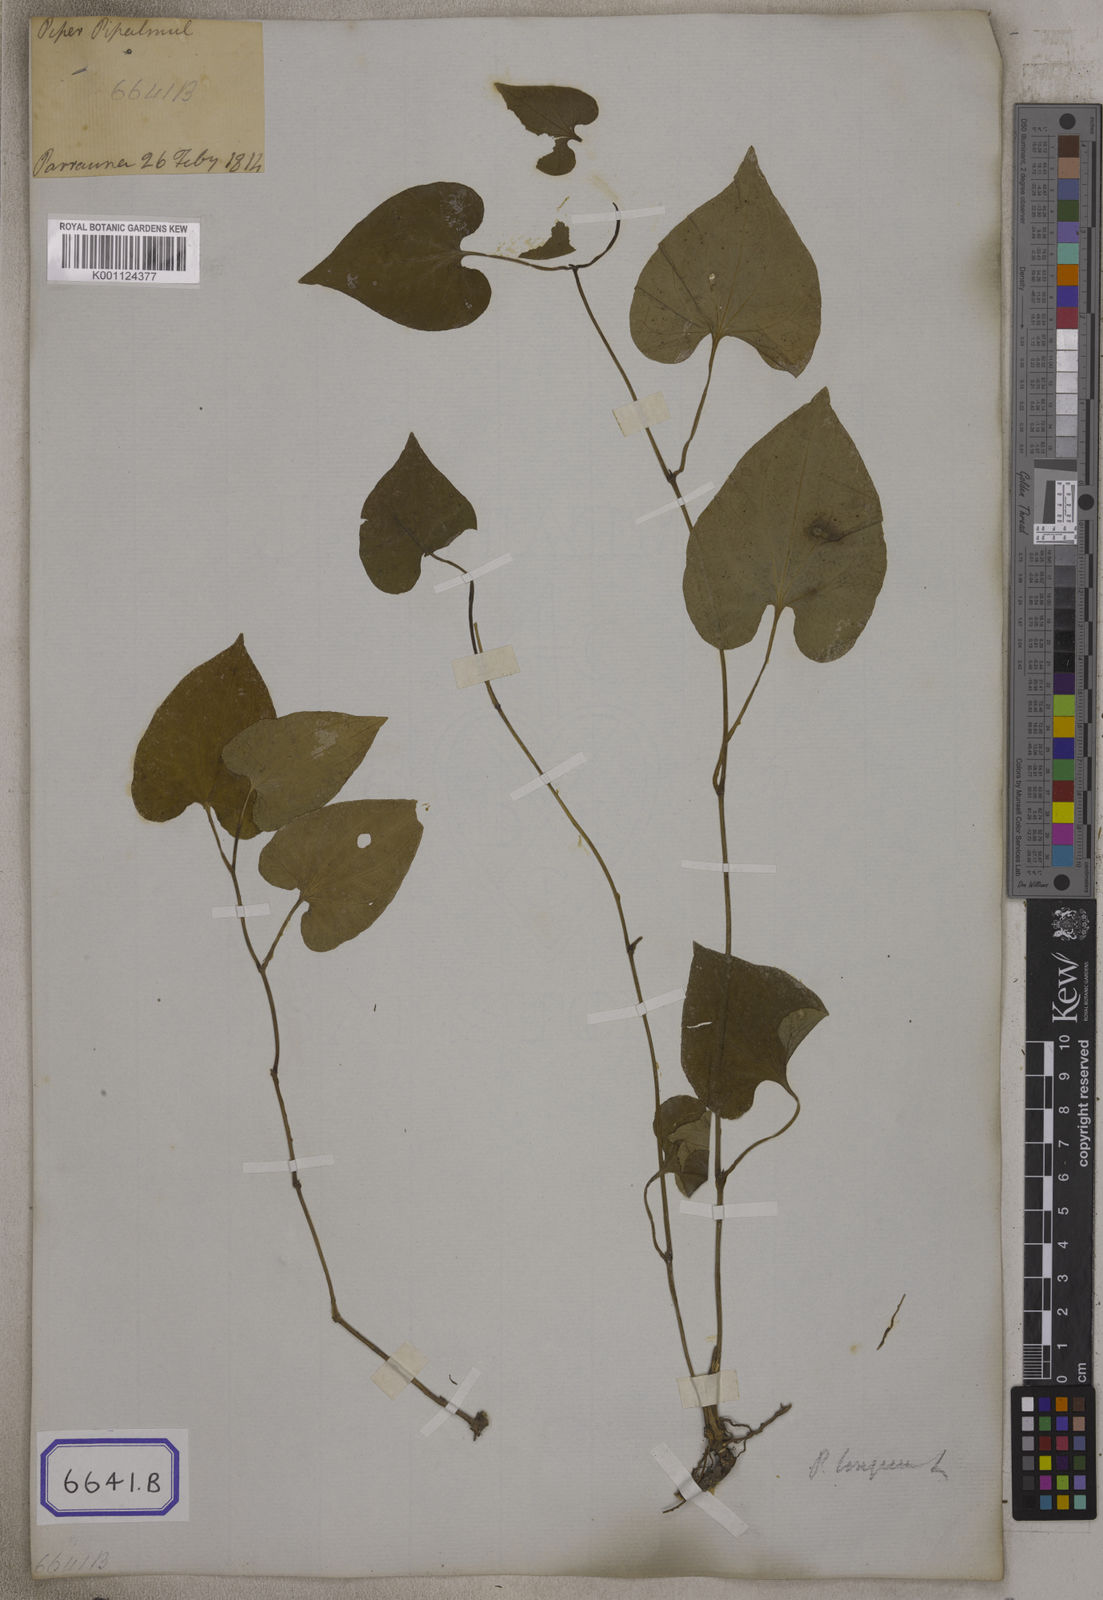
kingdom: Plantae
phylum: Tracheophyta
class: Magnoliopsida
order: Piperales
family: Piperaceae
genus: Piper
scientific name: Piper longum
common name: Long pepper
